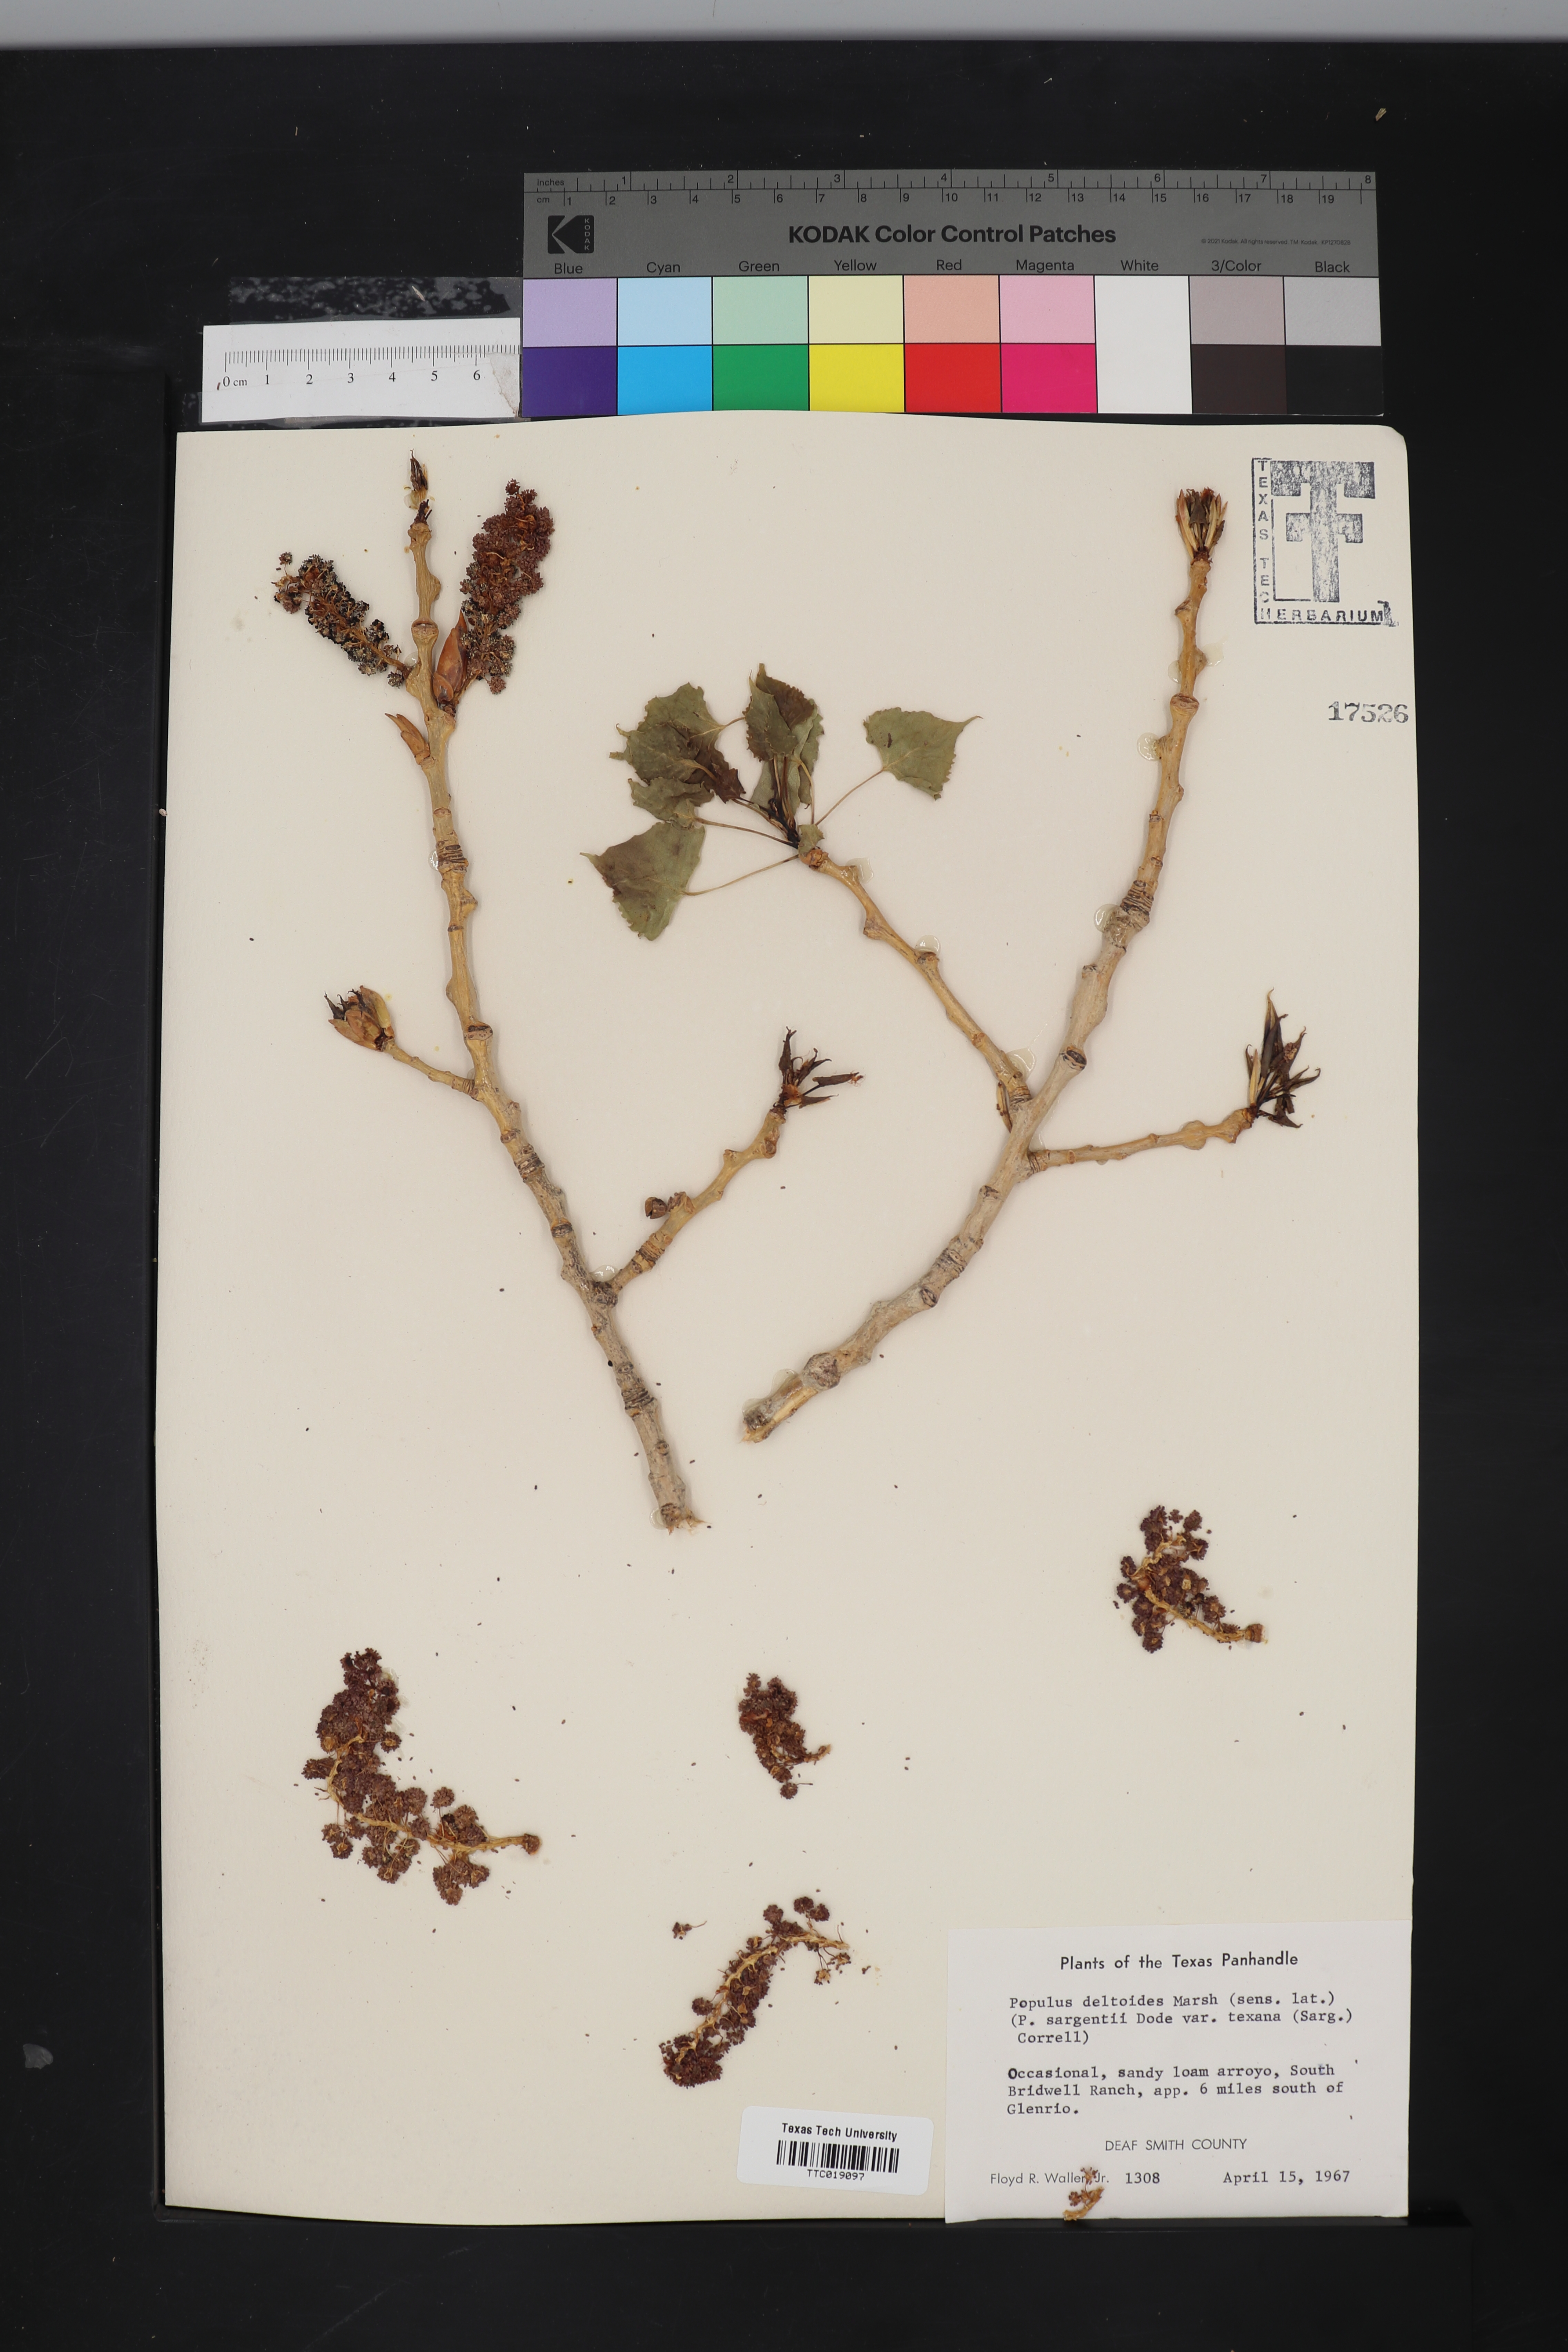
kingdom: Plantae
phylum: Tracheophyta
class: Magnoliopsida
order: Malpighiales
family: Salicaceae
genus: Populus
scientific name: Populus deltoides
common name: Eastern cottonwood
